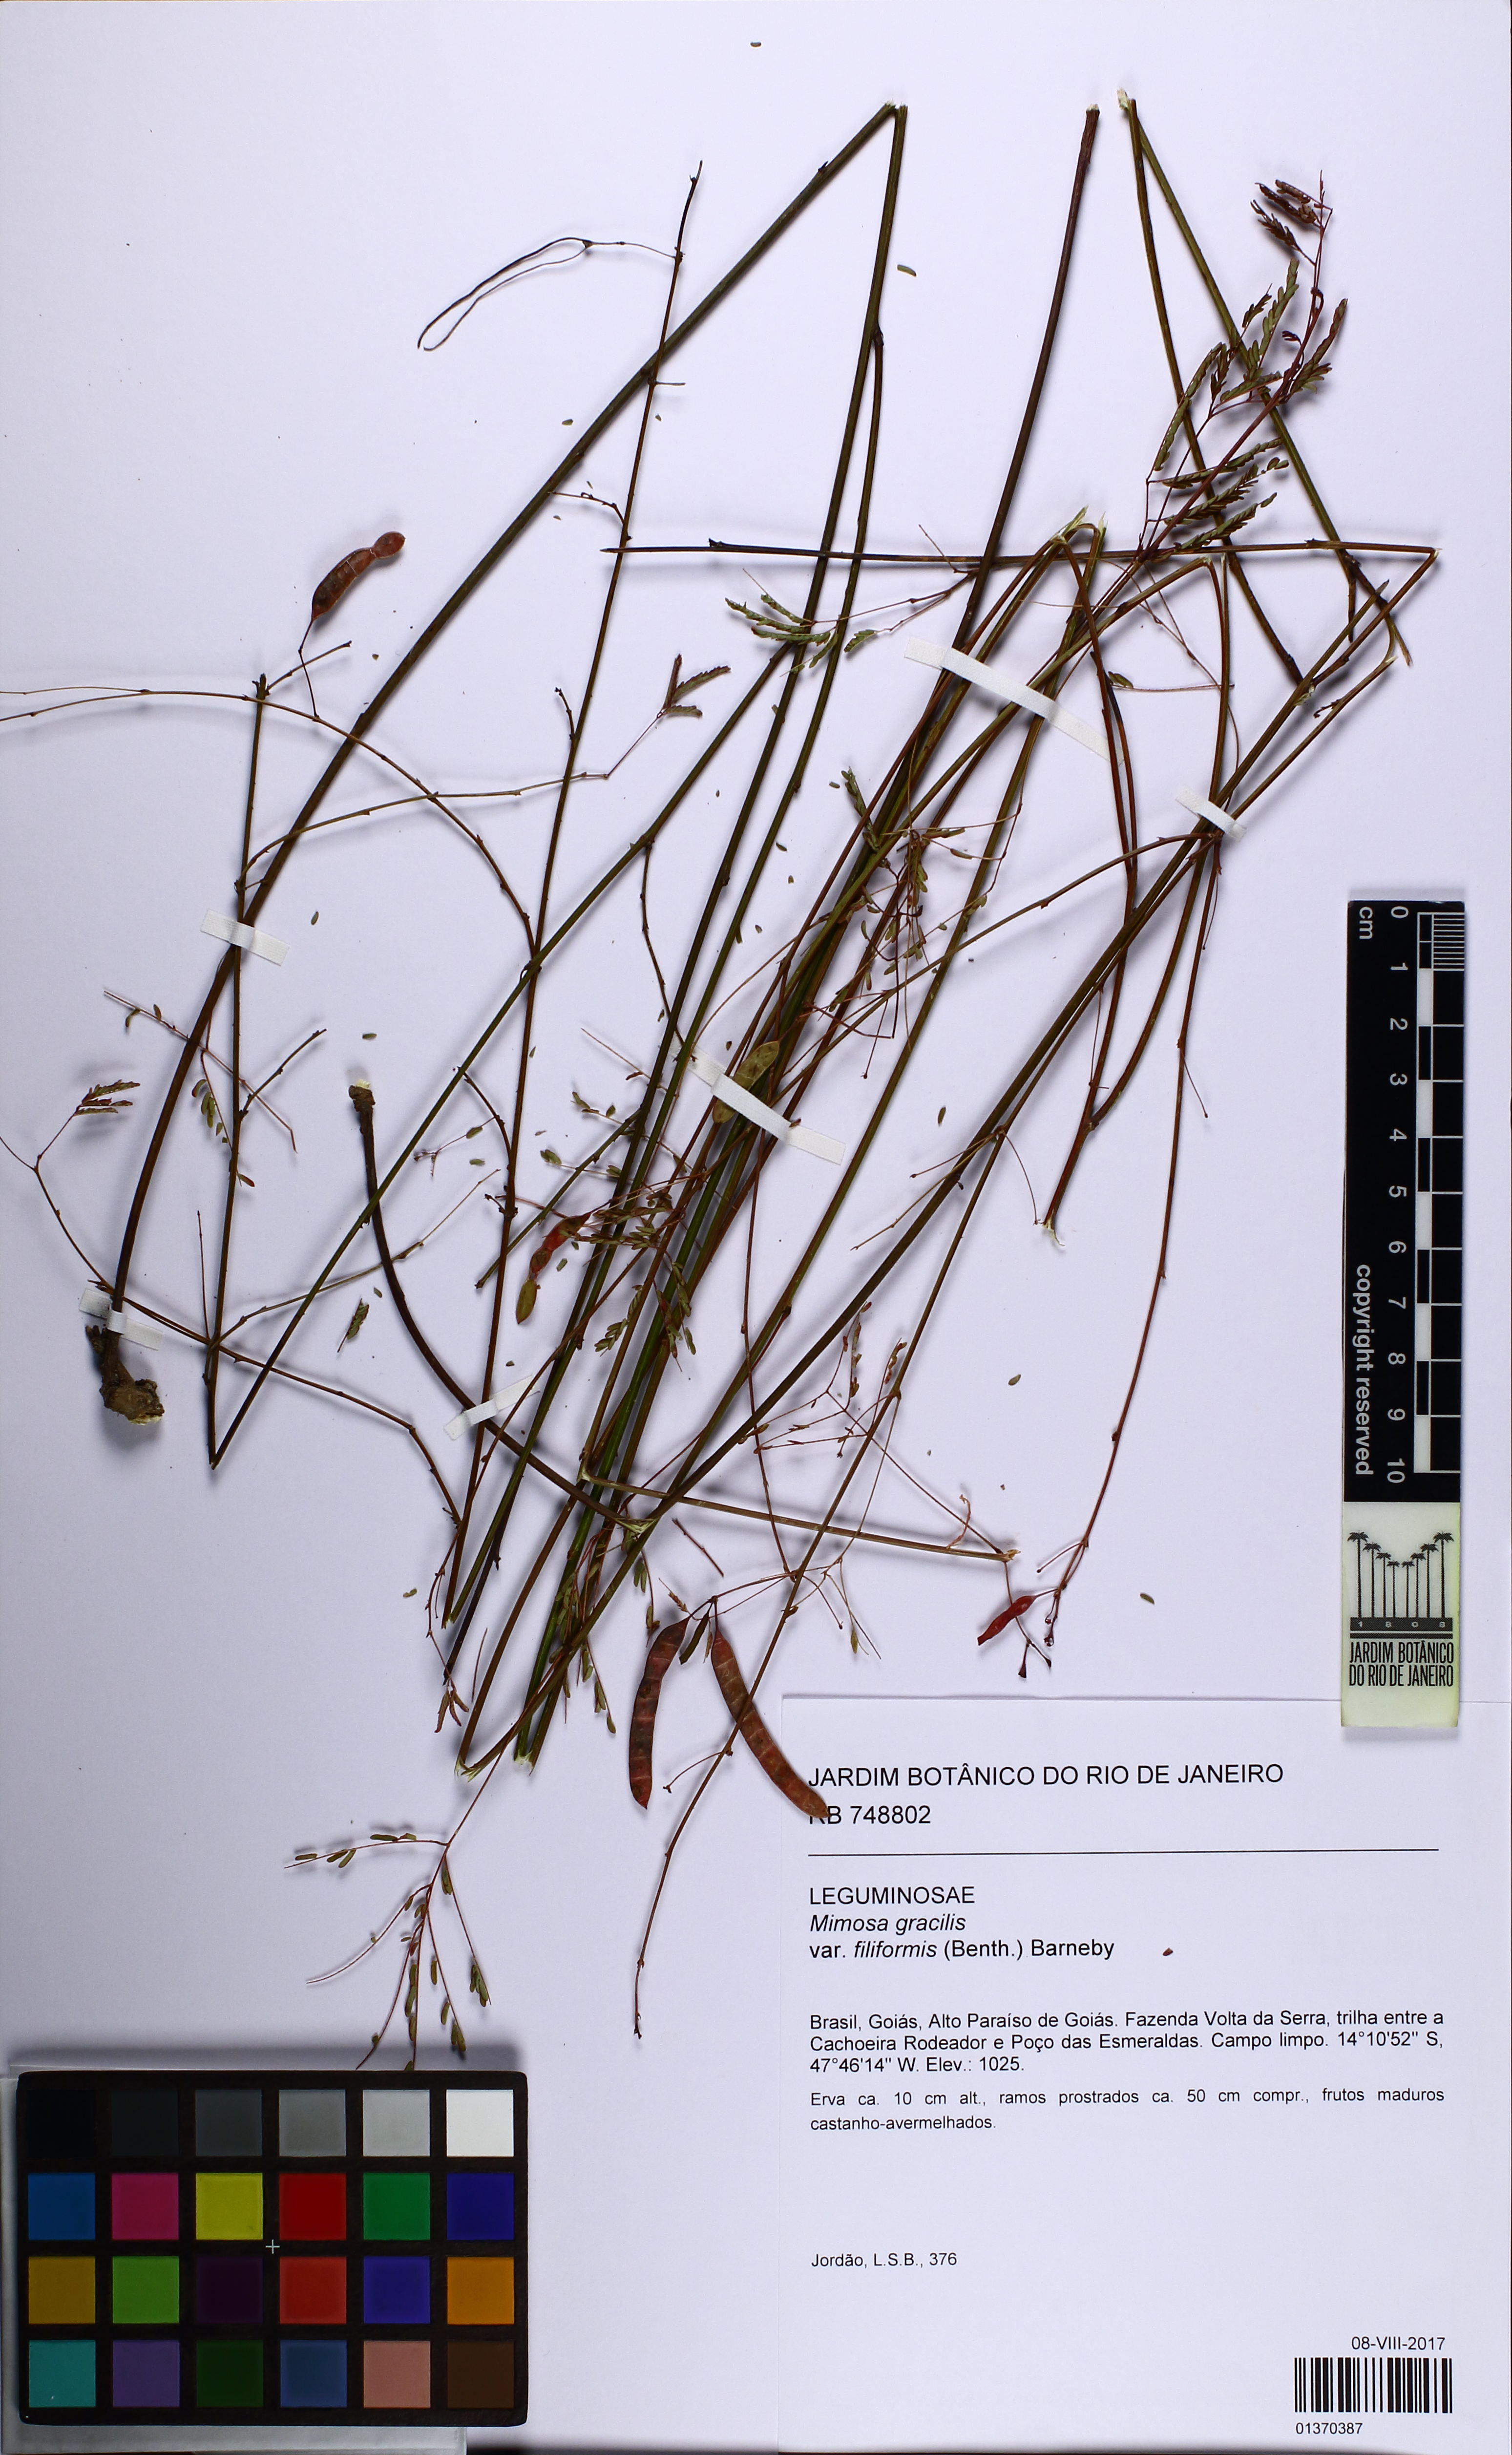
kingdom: Plantae
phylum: Tracheophyta
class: Magnoliopsida
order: Fabales
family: Fabaceae
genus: Mimosa
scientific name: Mimosa gracilis
